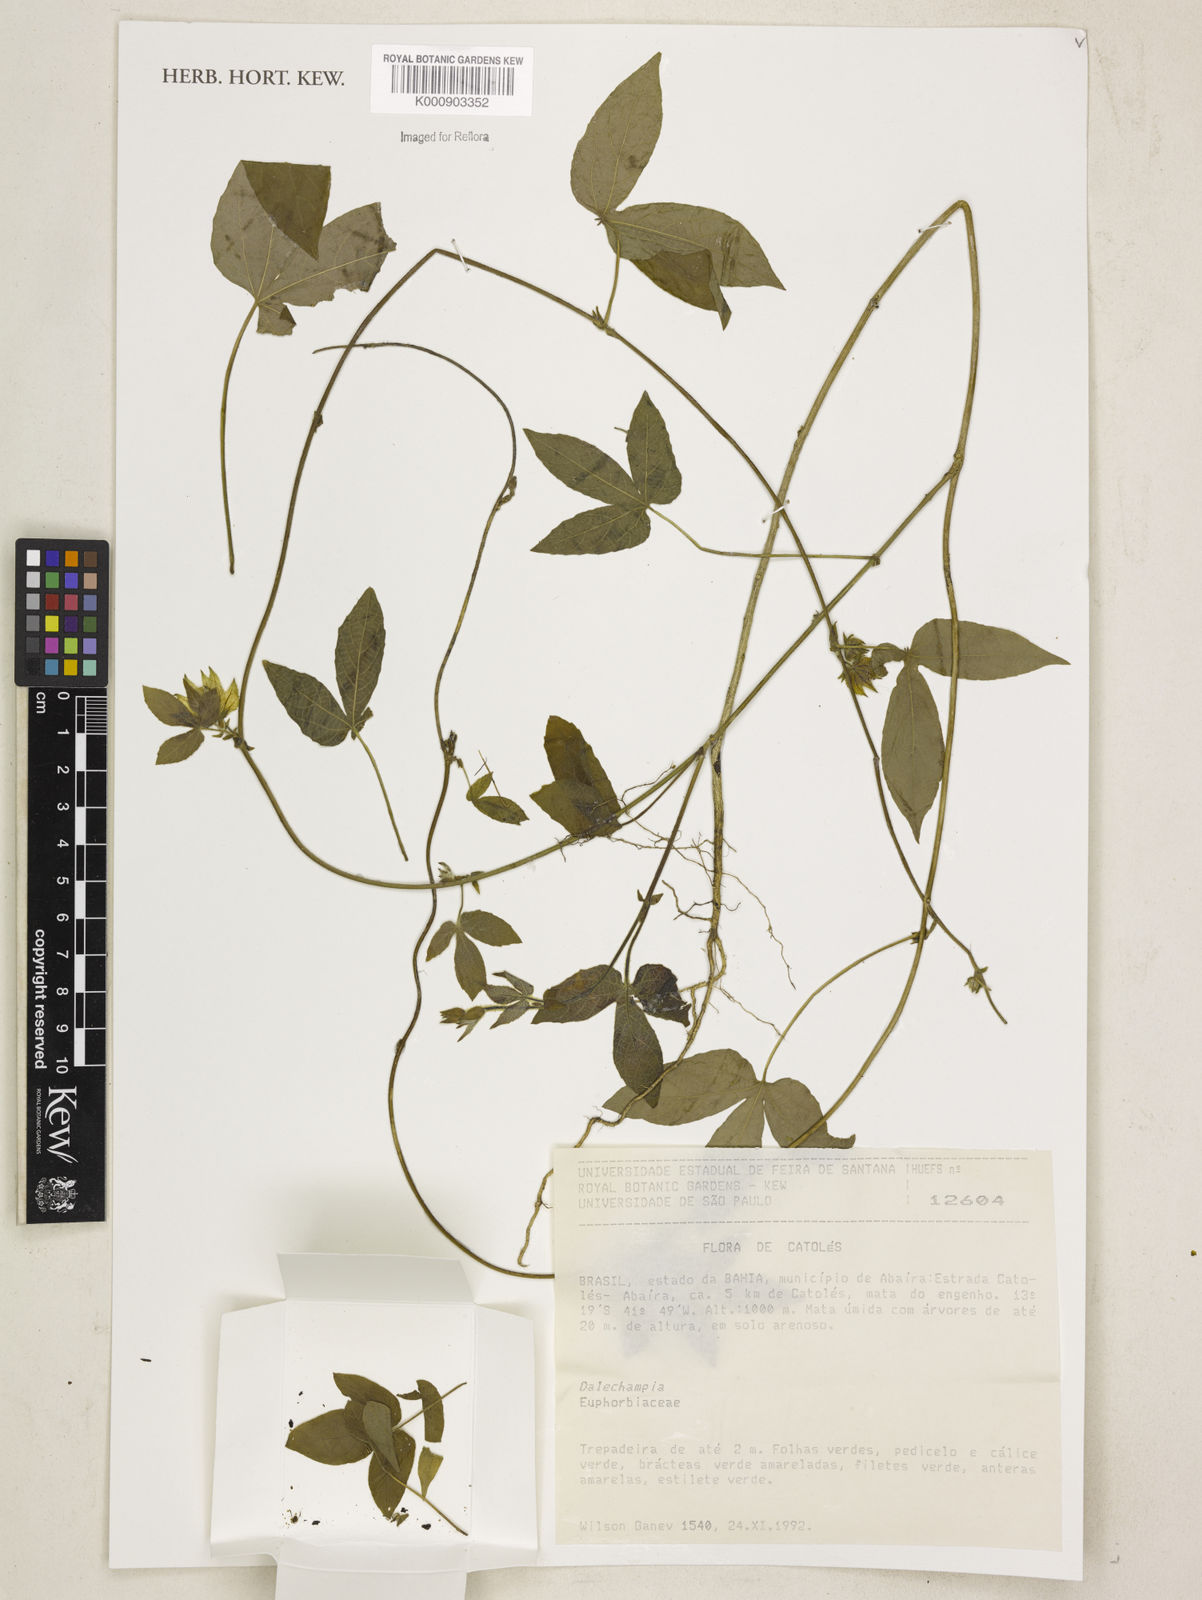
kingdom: Plantae
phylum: Tracheophyta
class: Magnoliopsida
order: Malpighiales
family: Euphorbiaceae
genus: Dalechampia
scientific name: Dalechampia
